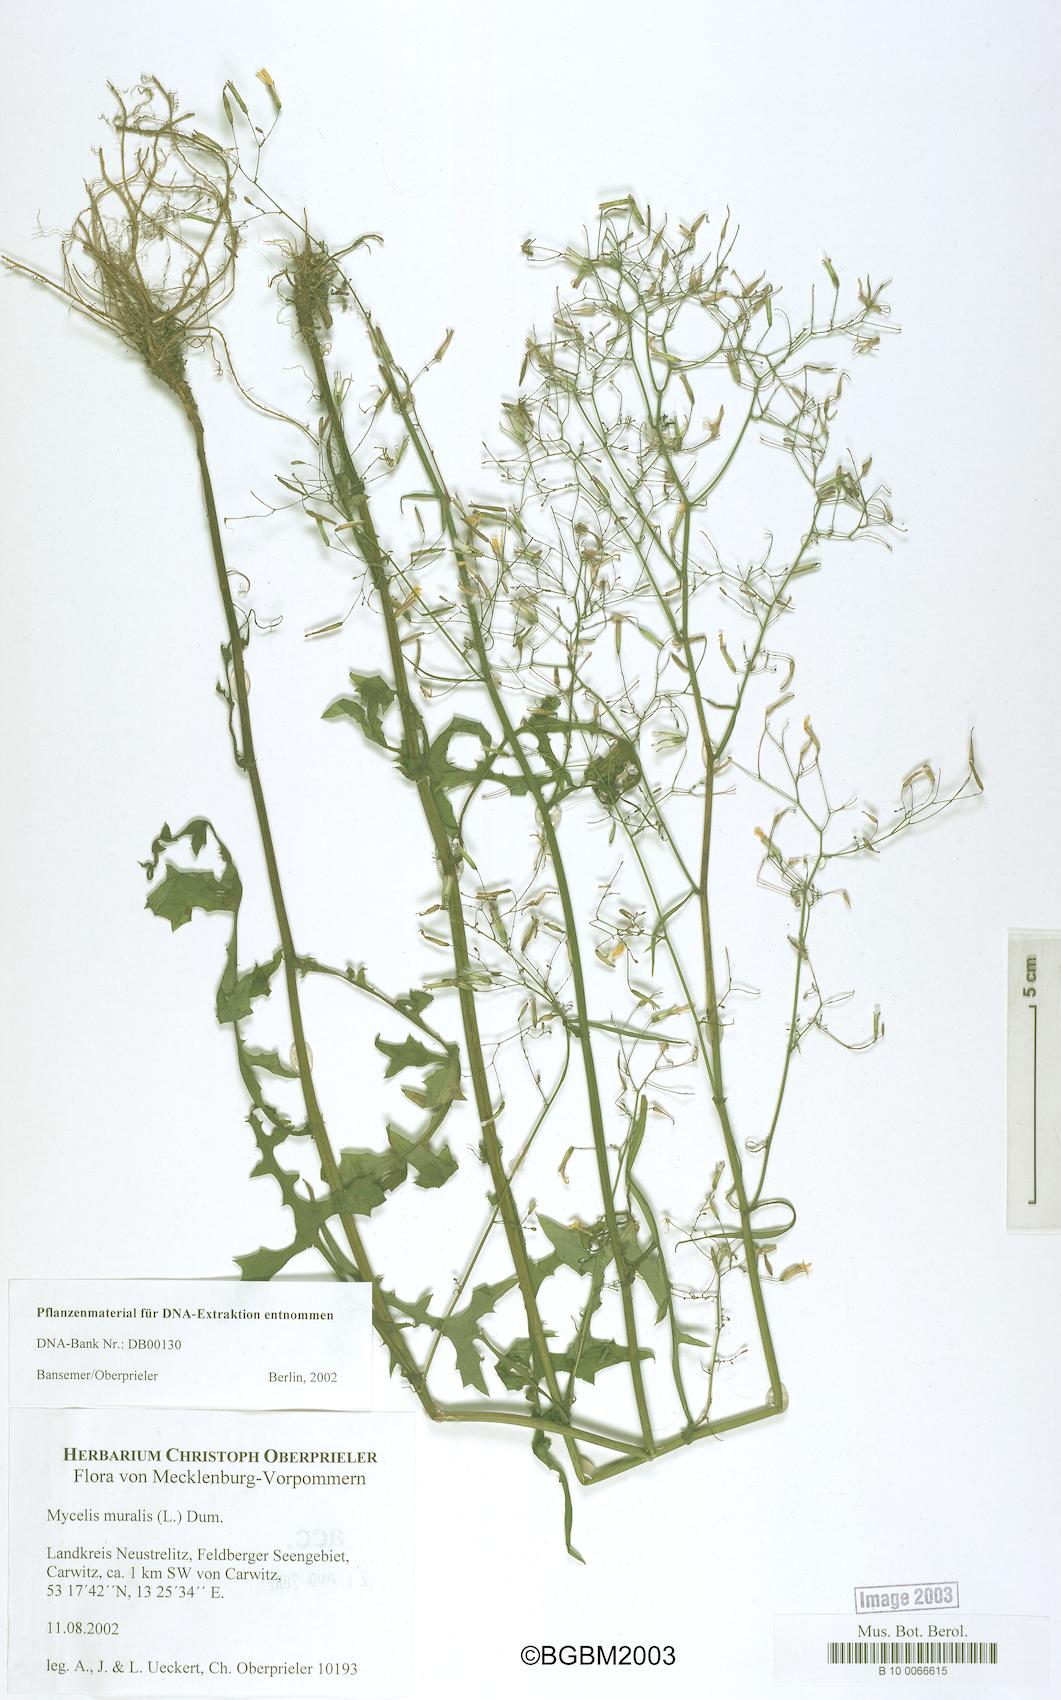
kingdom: Plantae
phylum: Tracheophyta
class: Magnoliopsida
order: Asterales
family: Asteraceae
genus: Mycelis
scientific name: Mycelis muralis
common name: Wall lettuce
